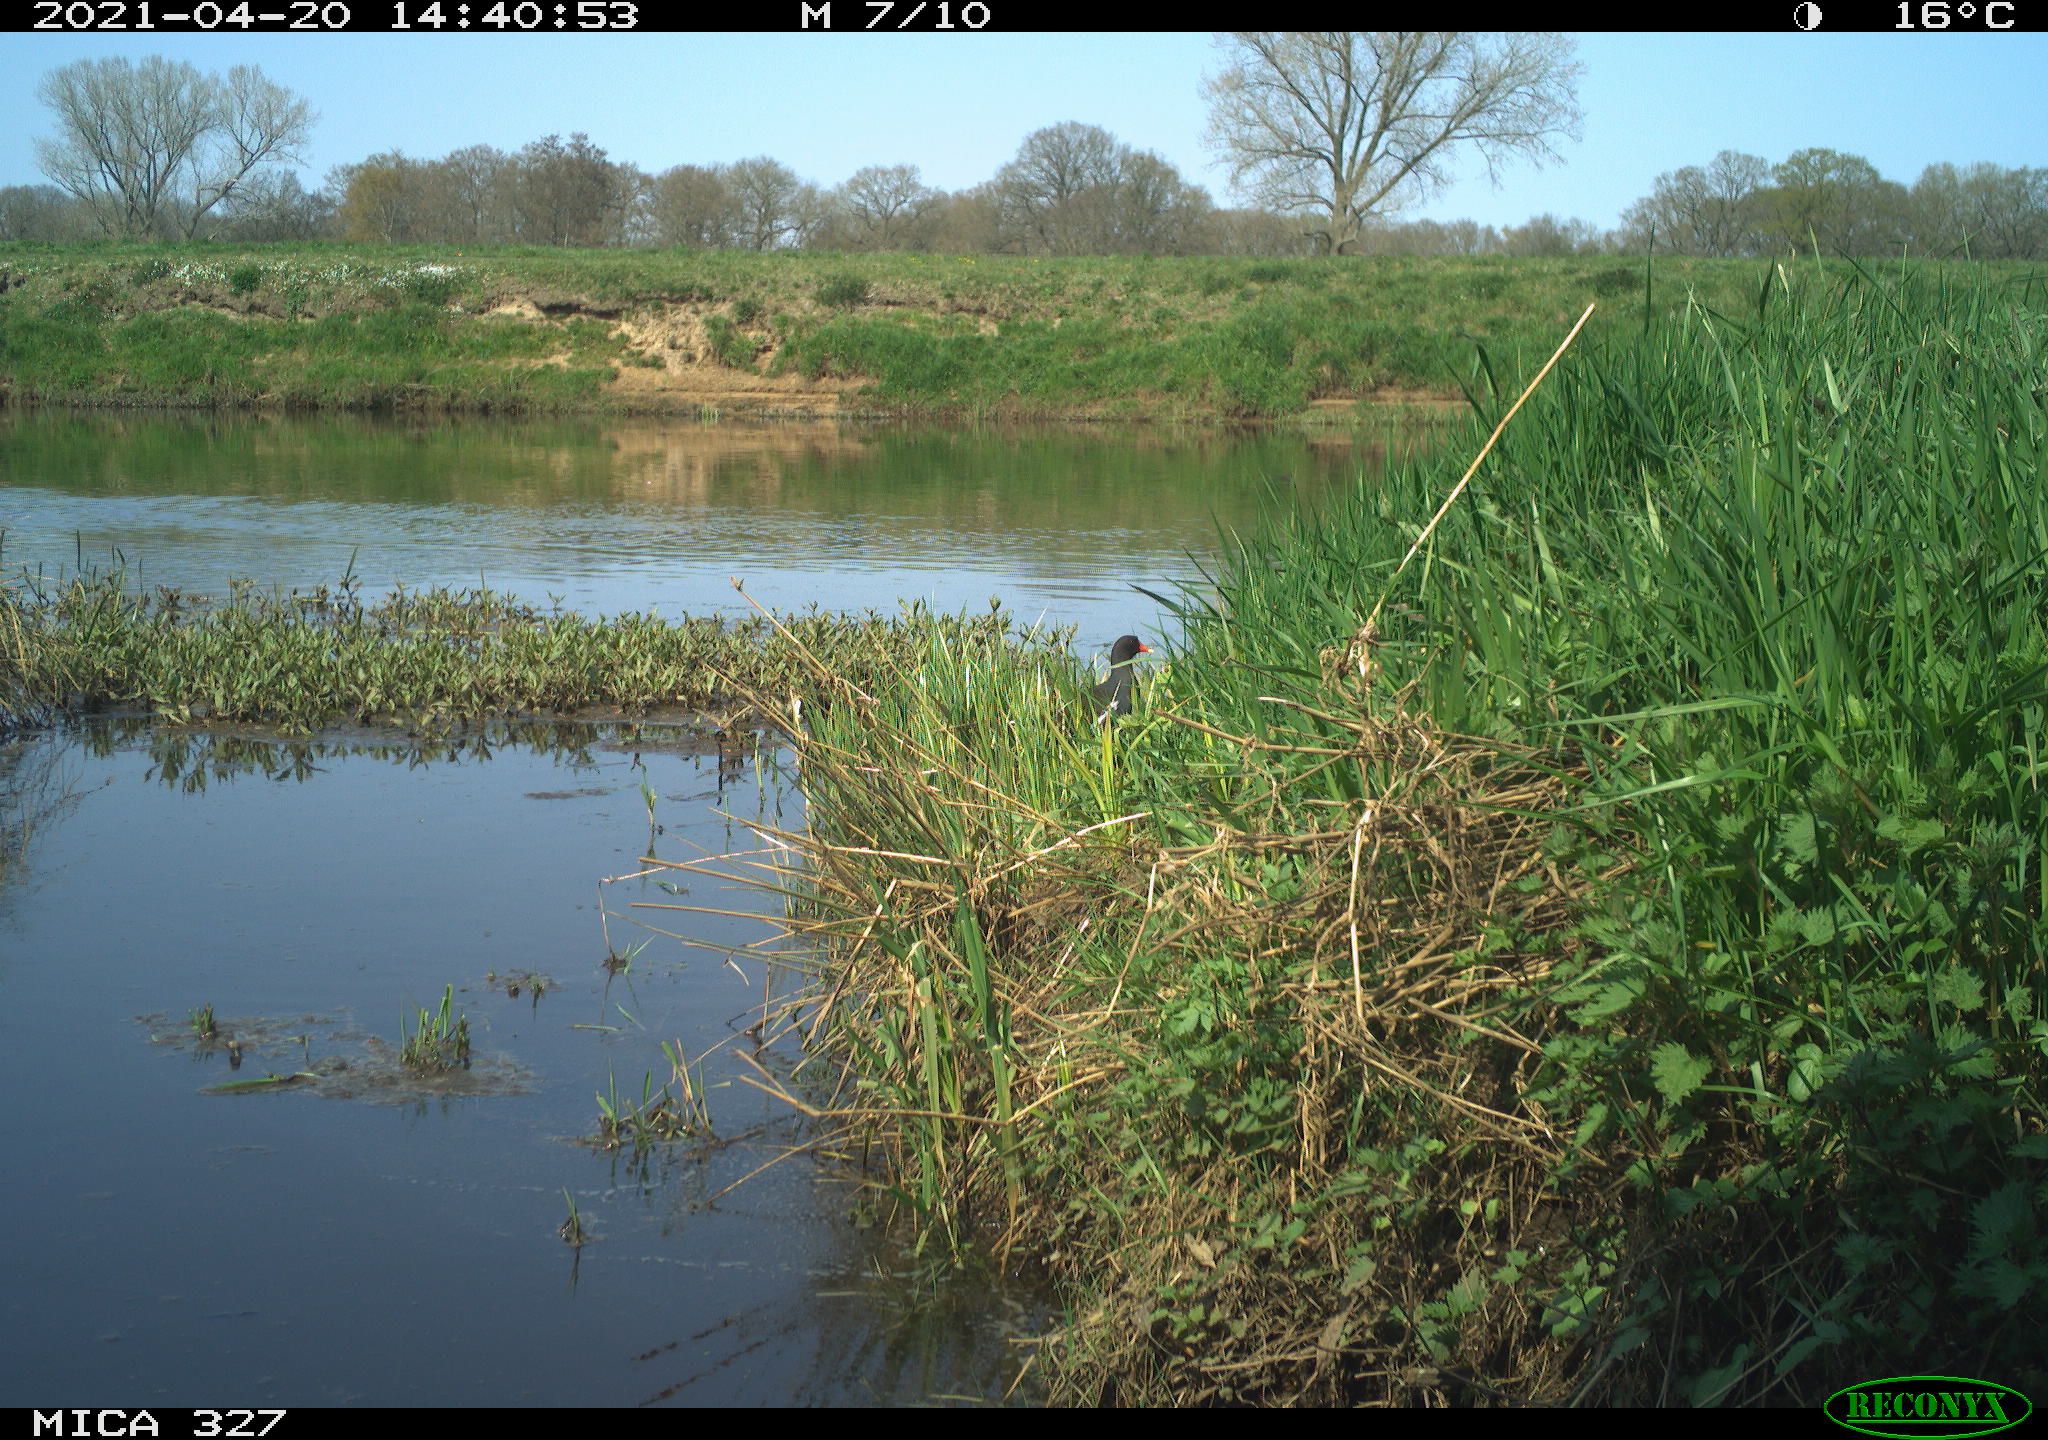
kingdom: Animalia
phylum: Chordata
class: Aves
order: Gruiformes
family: Rallidae
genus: Gallinula
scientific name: Gallinula chloropus
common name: Common moorhen
